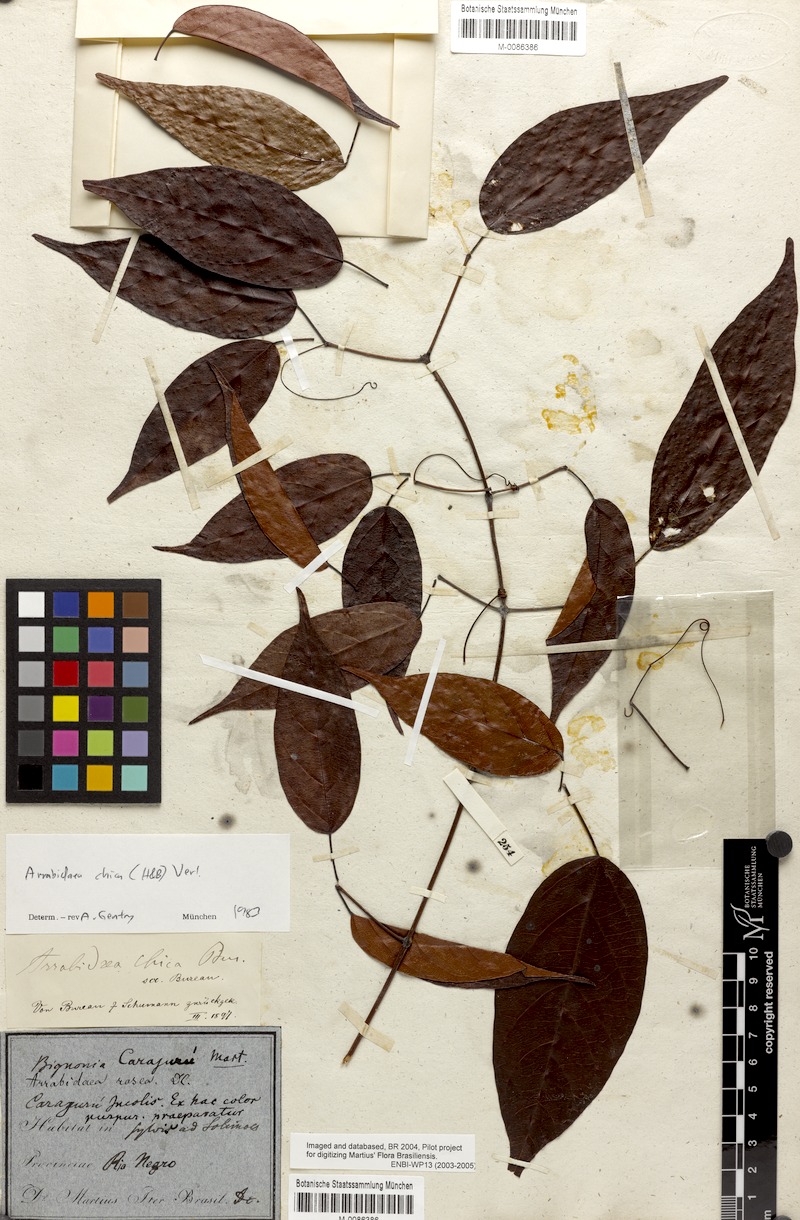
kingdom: Plantae
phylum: Tracheophyta
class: Magnoliopsida
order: Lamiales
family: Bignoniaceae
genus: Fridericia
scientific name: Fridericia chica
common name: Cricketvine
